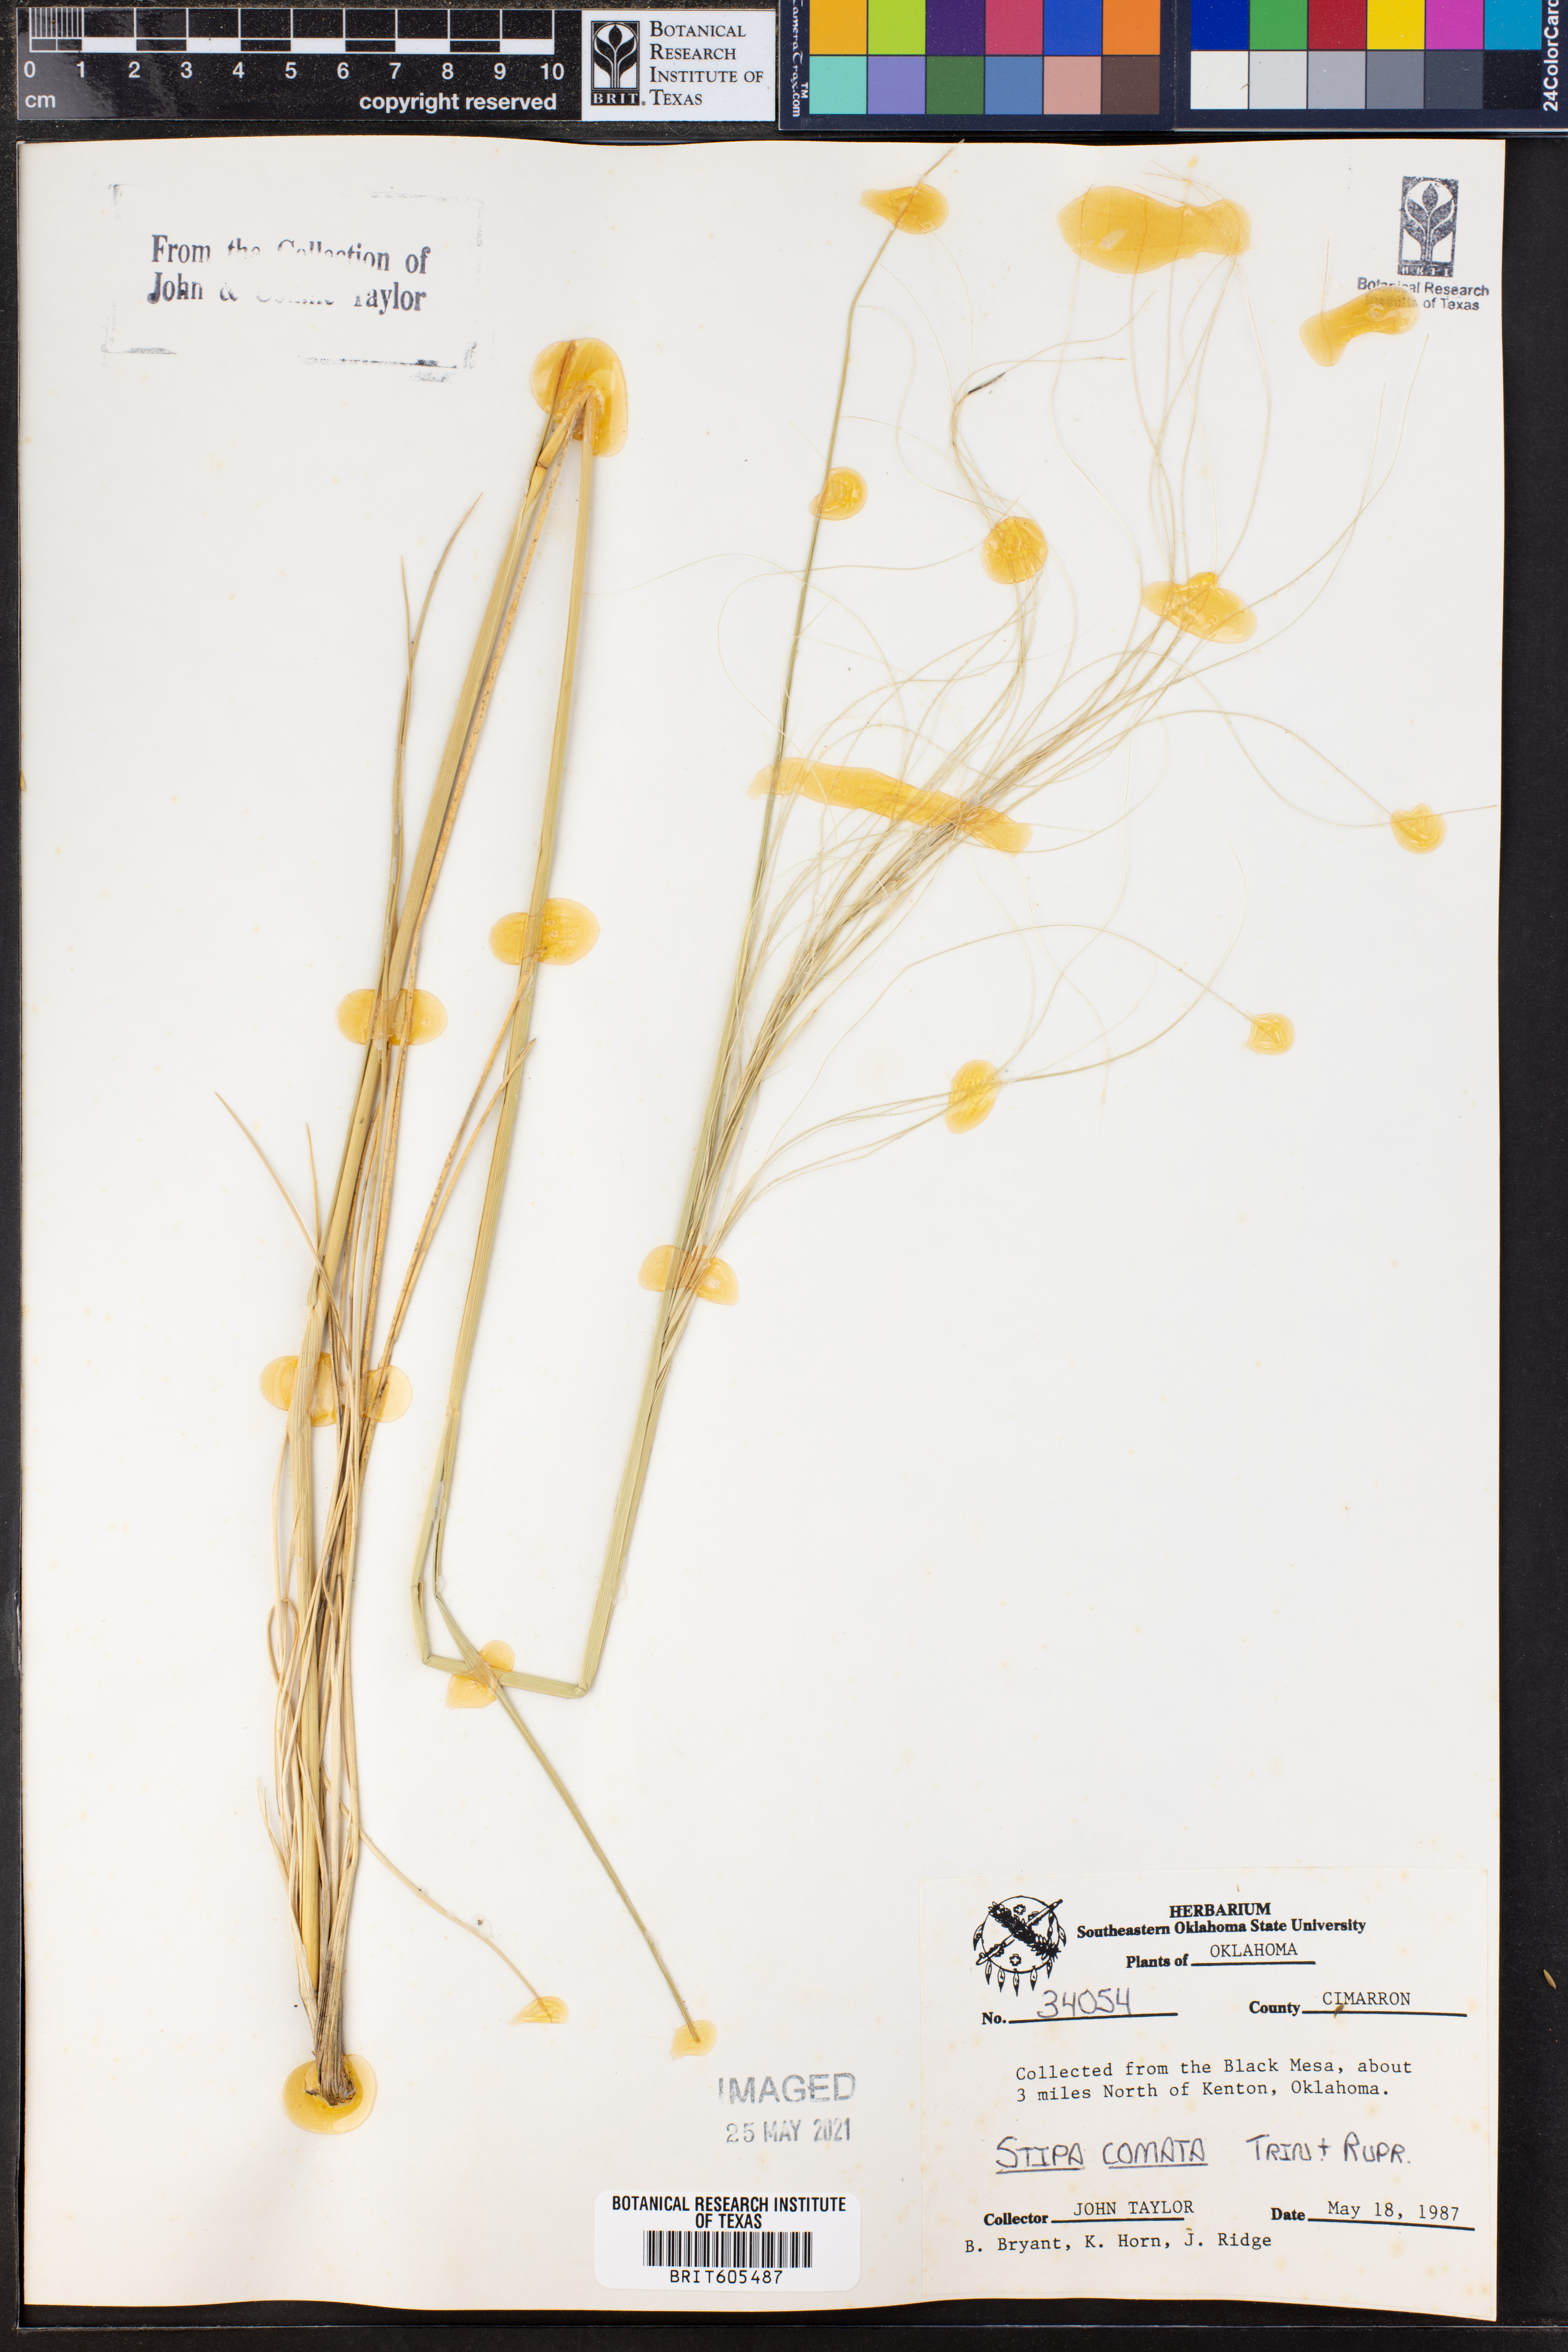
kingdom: Plantae
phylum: Tracheophyta
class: Liliopsida
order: Poales
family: Poaceae
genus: Hesperostipa
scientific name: Hesperostipa comata
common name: Needle-and-thread grass
